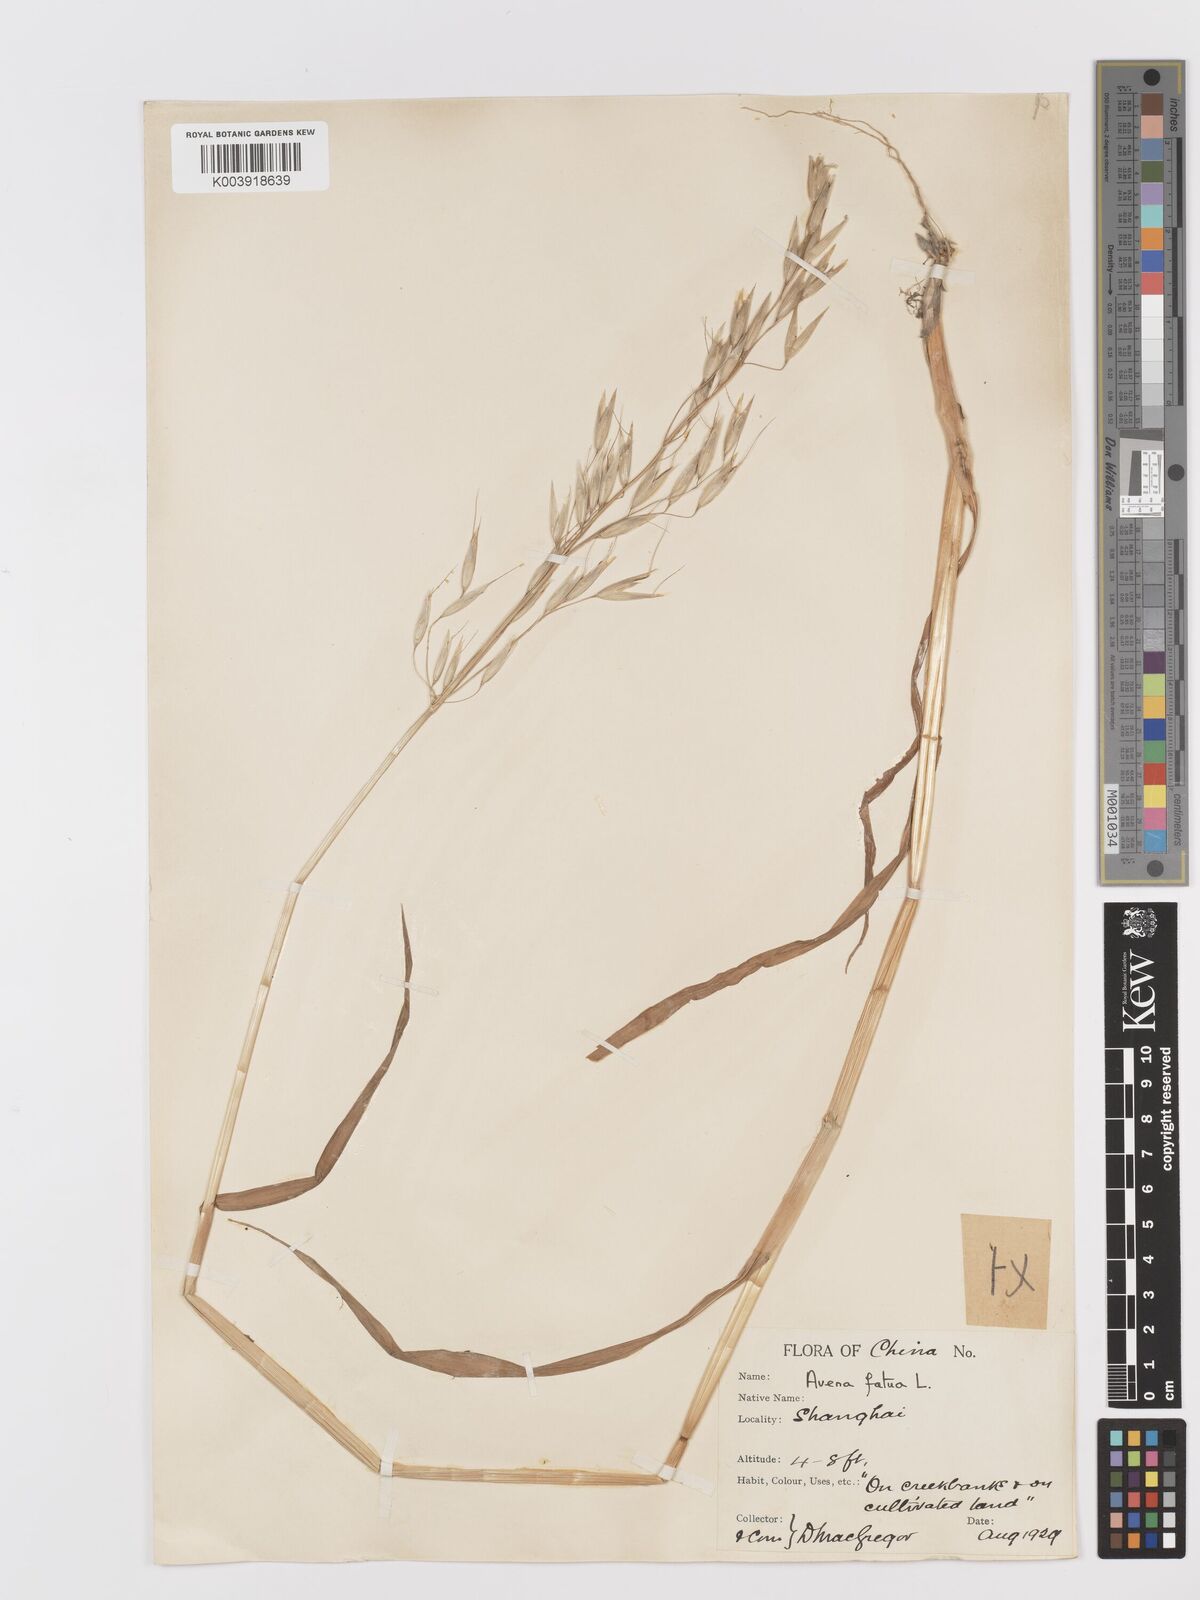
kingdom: Plantae
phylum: Tracheophyta
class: Liliopsida
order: Poales
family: Poaceae
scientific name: Poaceae
